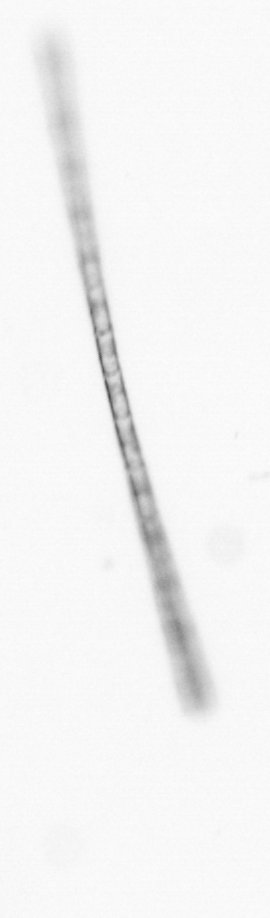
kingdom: Chromista
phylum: Ochrophyta
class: Bacillariophyceae
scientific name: Bacillariophyceae
